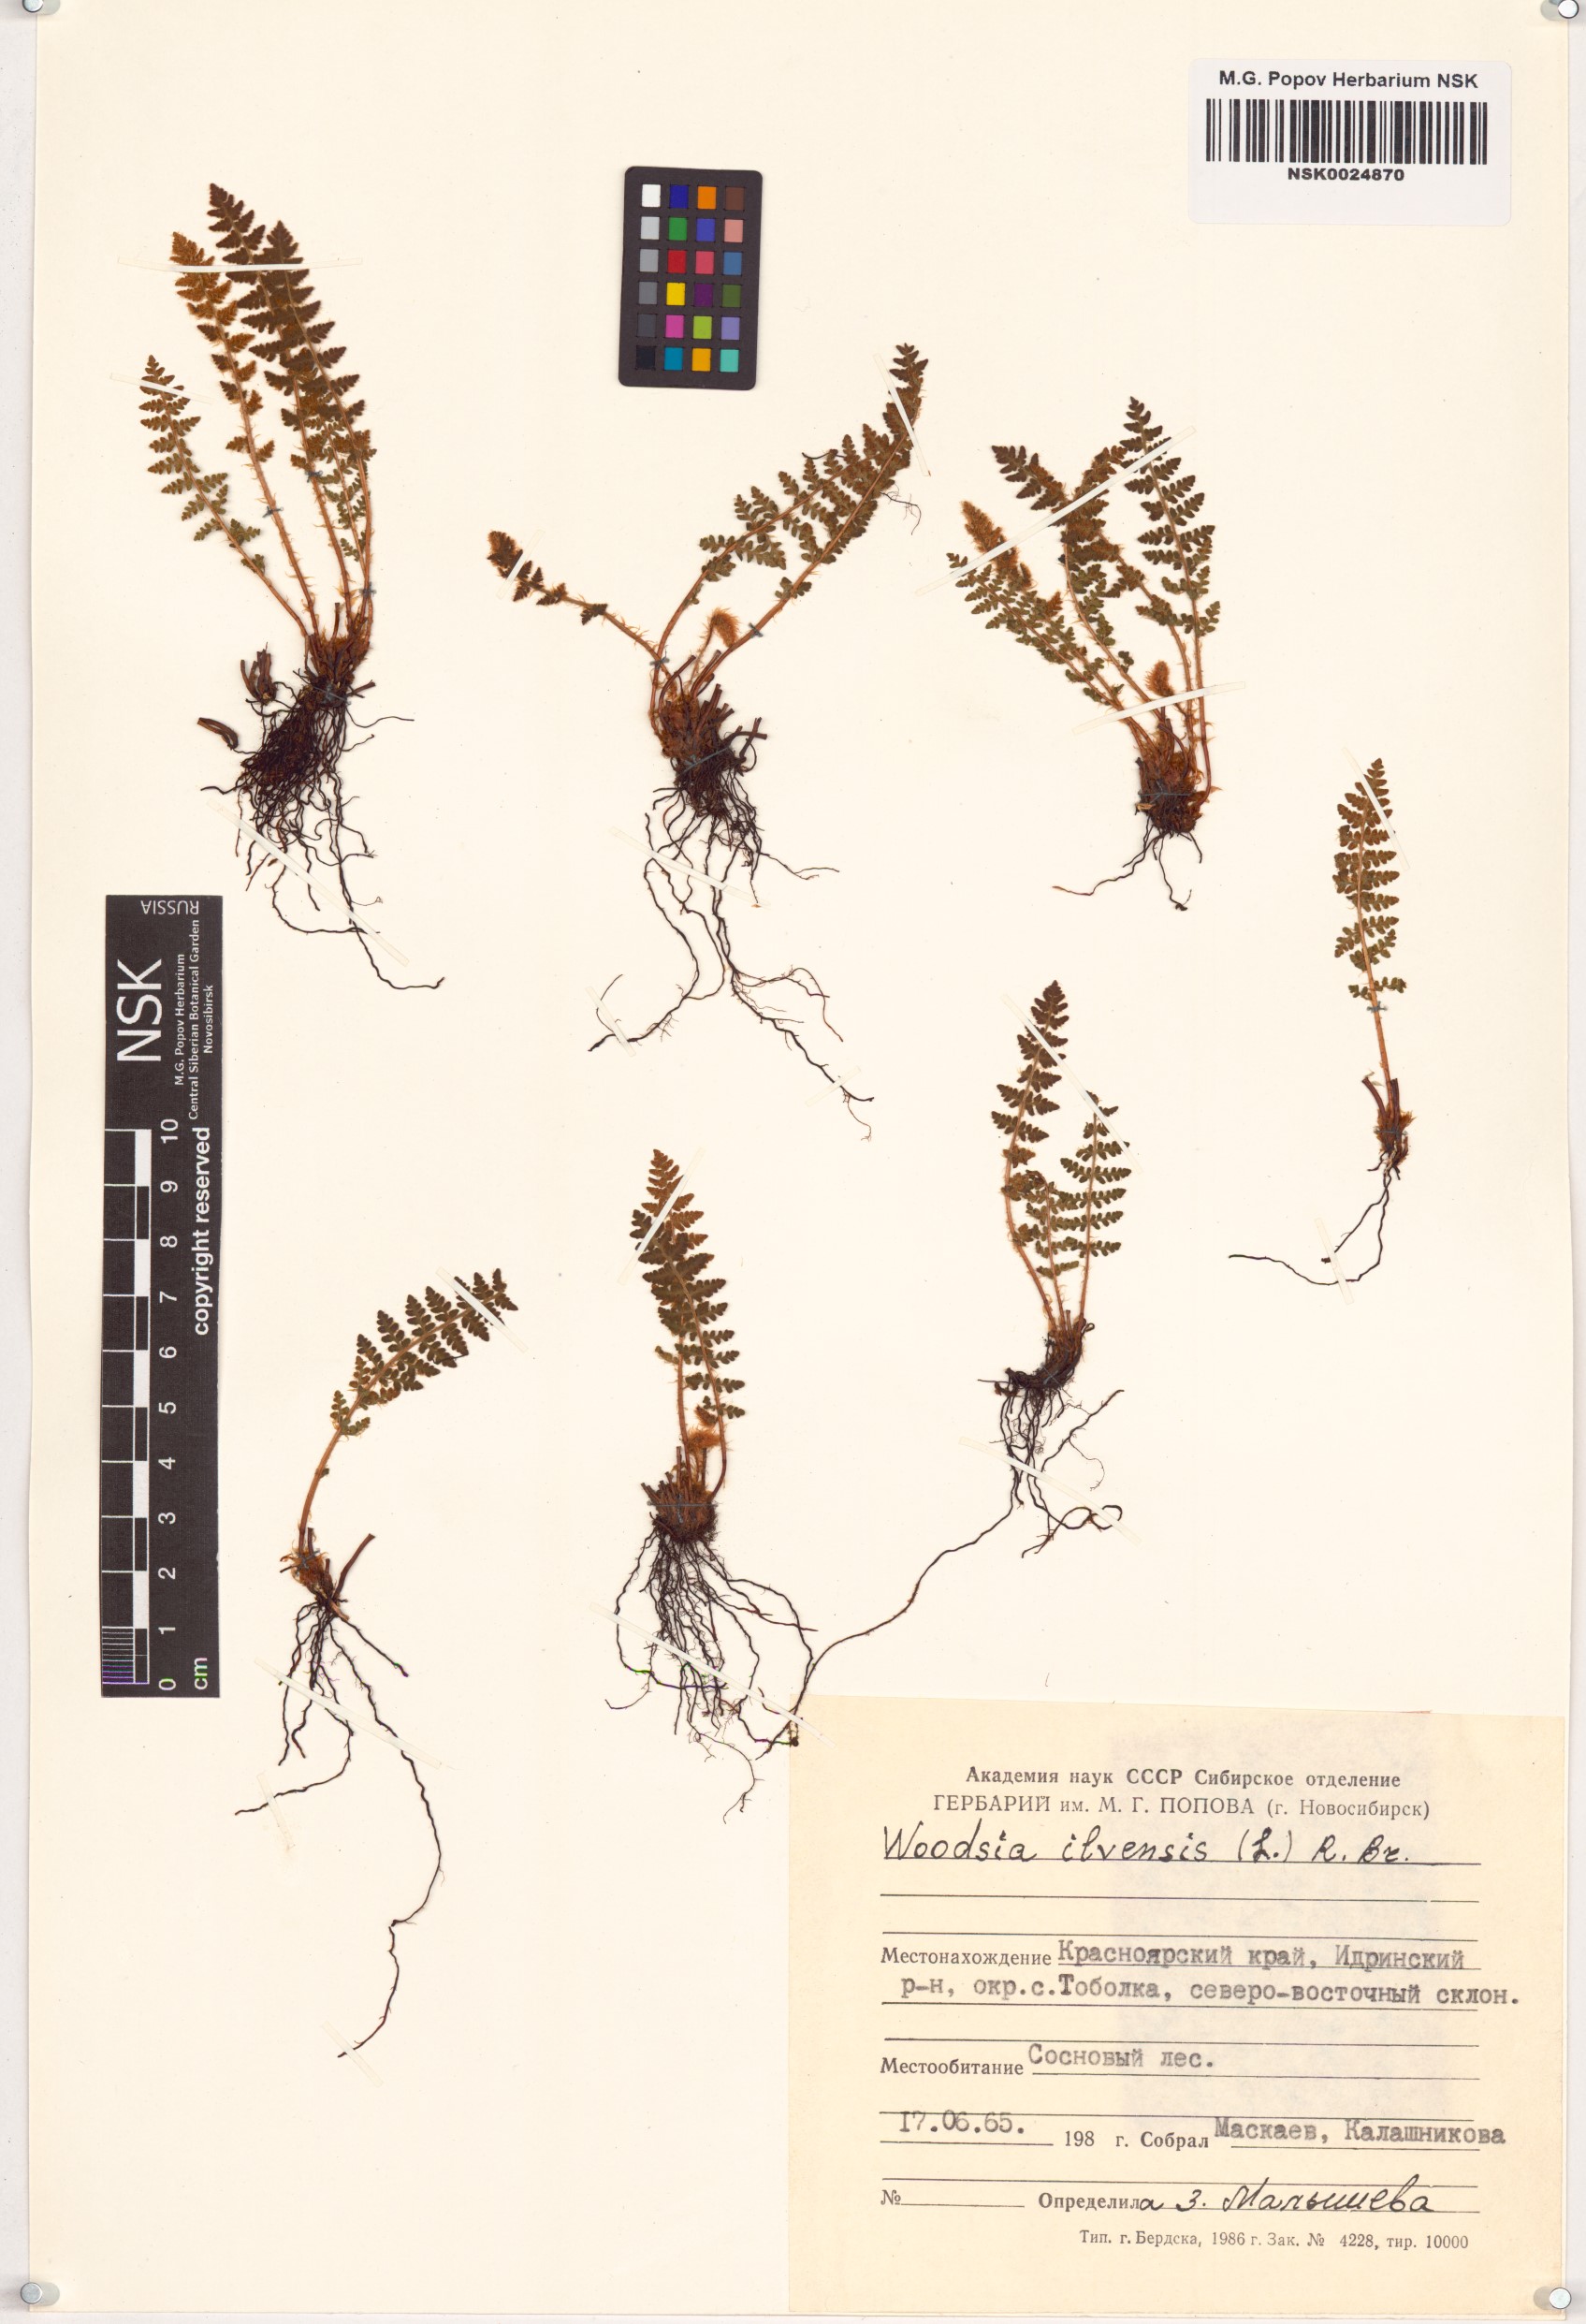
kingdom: Plantae
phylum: Tracheophyta
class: Polypodiopsida
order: Polypodiales
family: Woodsiaceae
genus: Woodsia
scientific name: Woodsia ilvensis
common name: Fragrant woodsia
